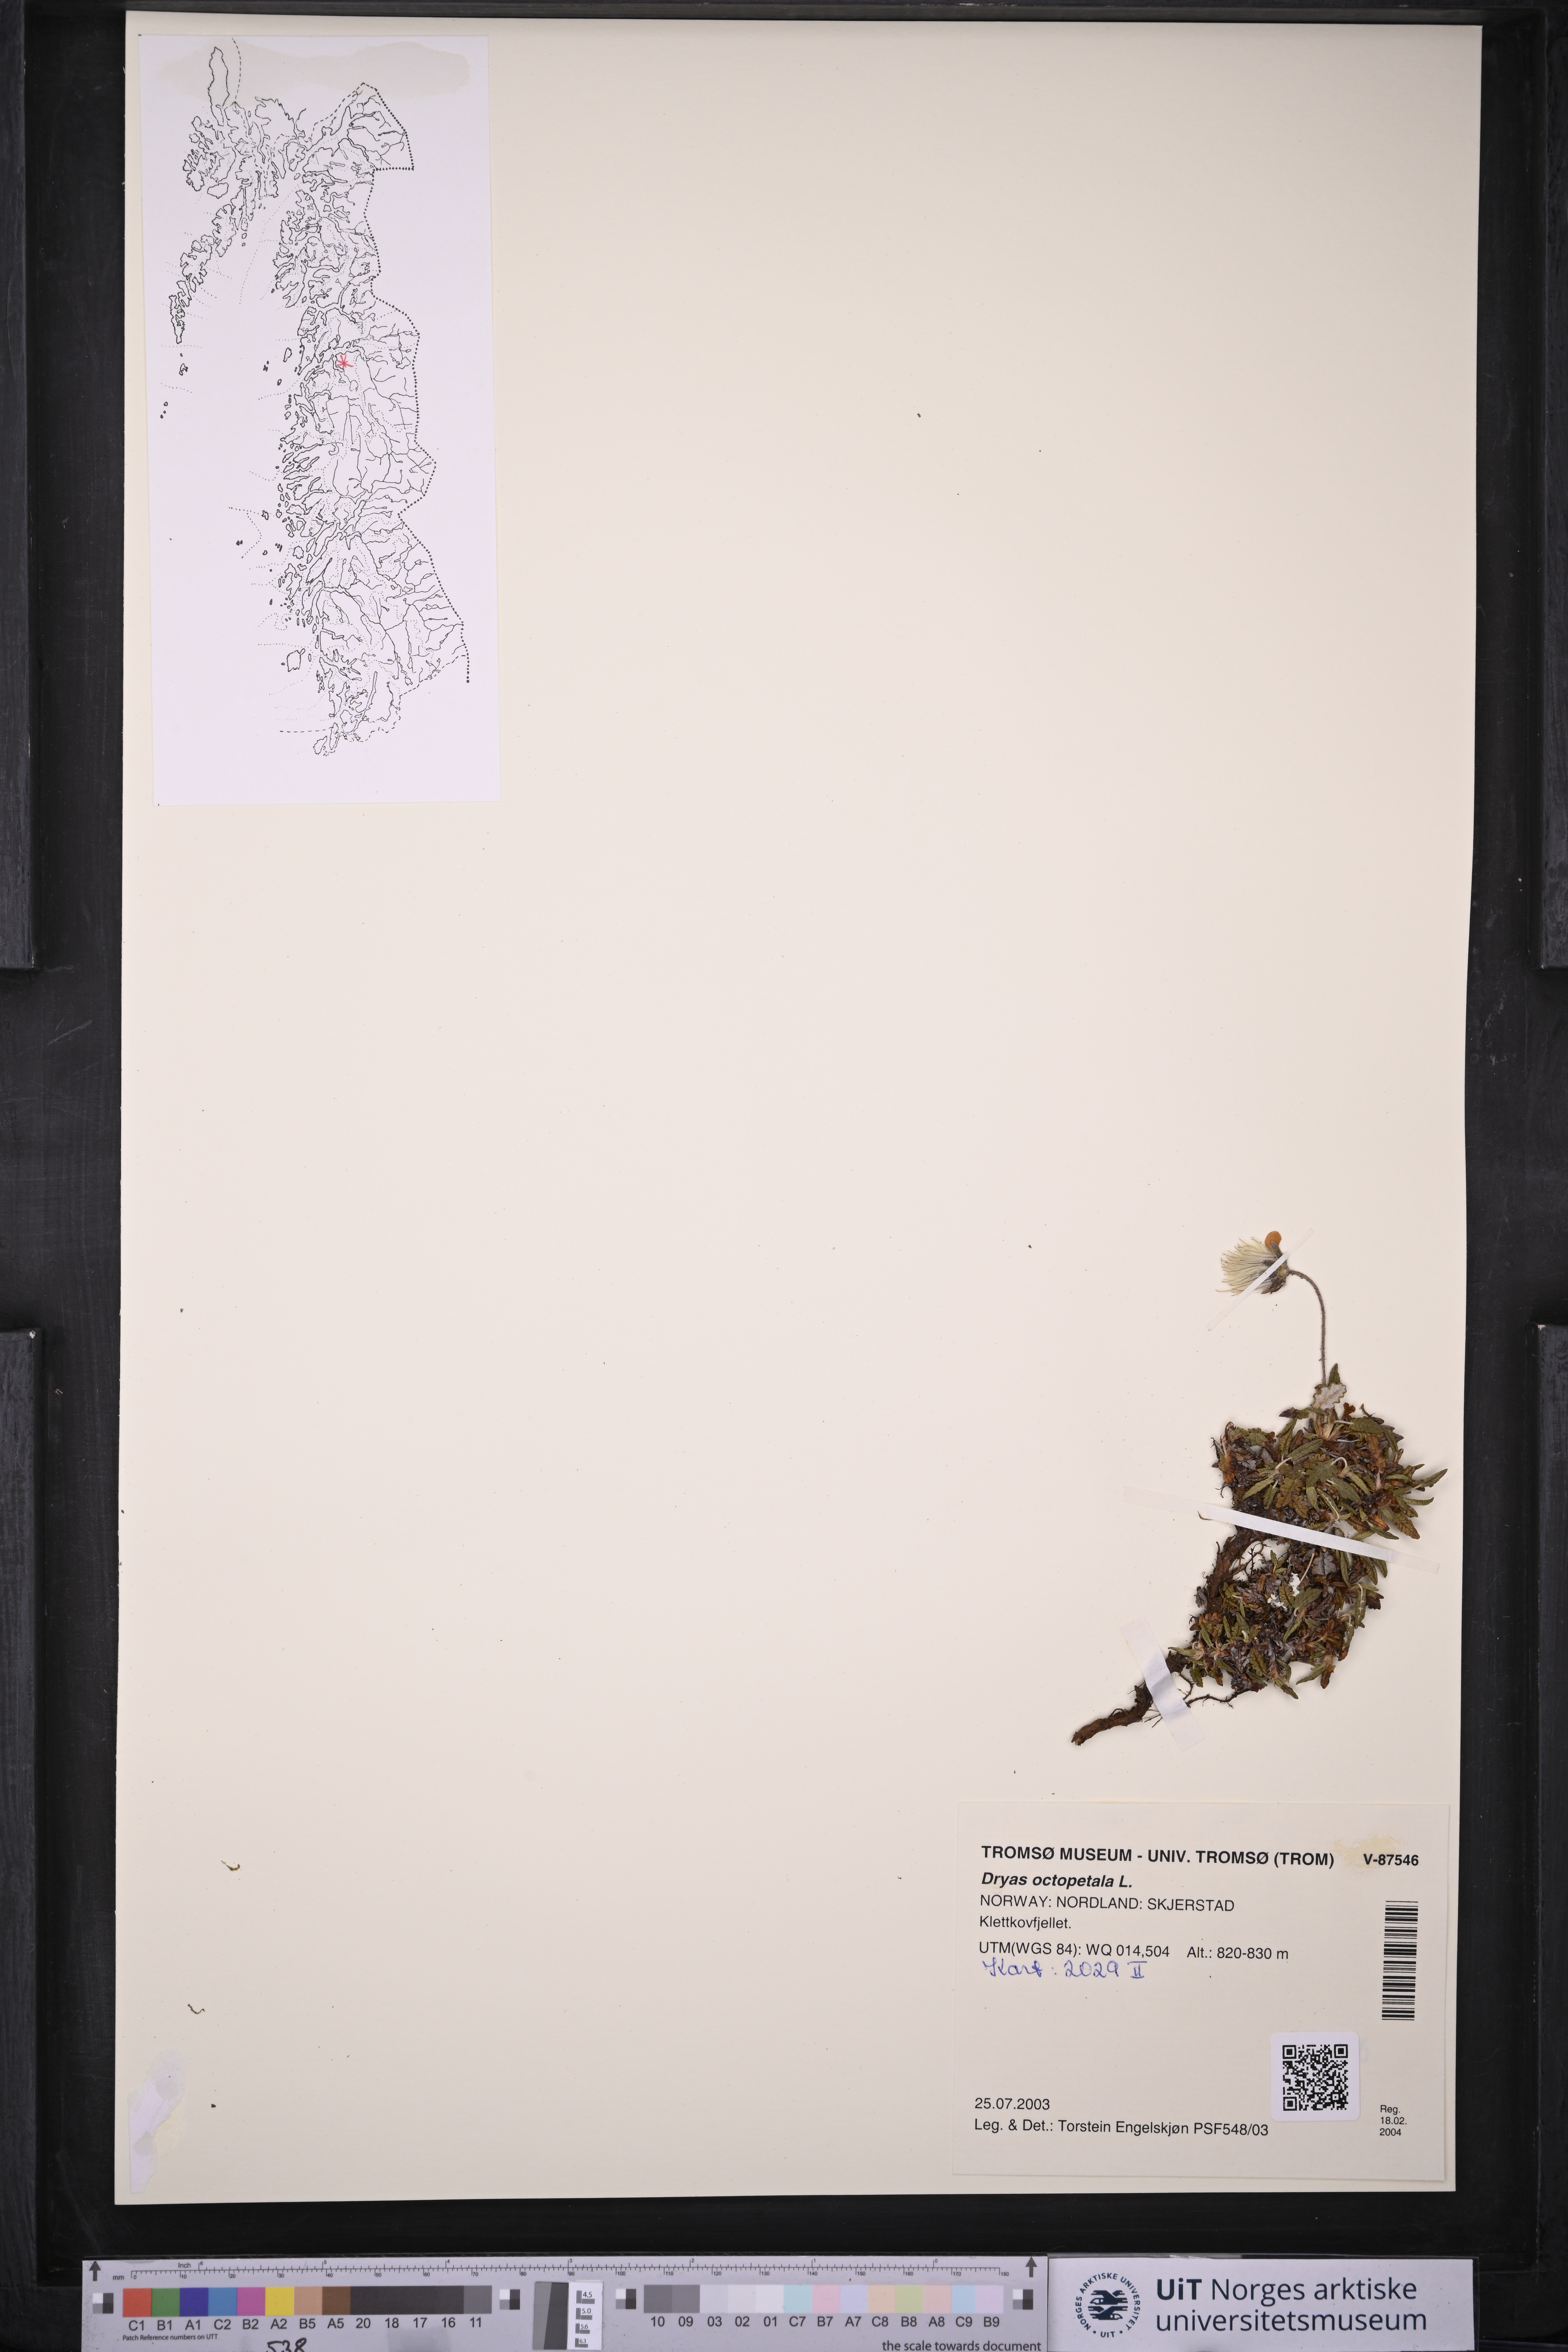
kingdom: Plantae
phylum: Tracheophyta
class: Magnoliopsida
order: Rosales
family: Rosaceae
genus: Dryas
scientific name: Dryas octopetala
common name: Eight-petal mountain-avens
